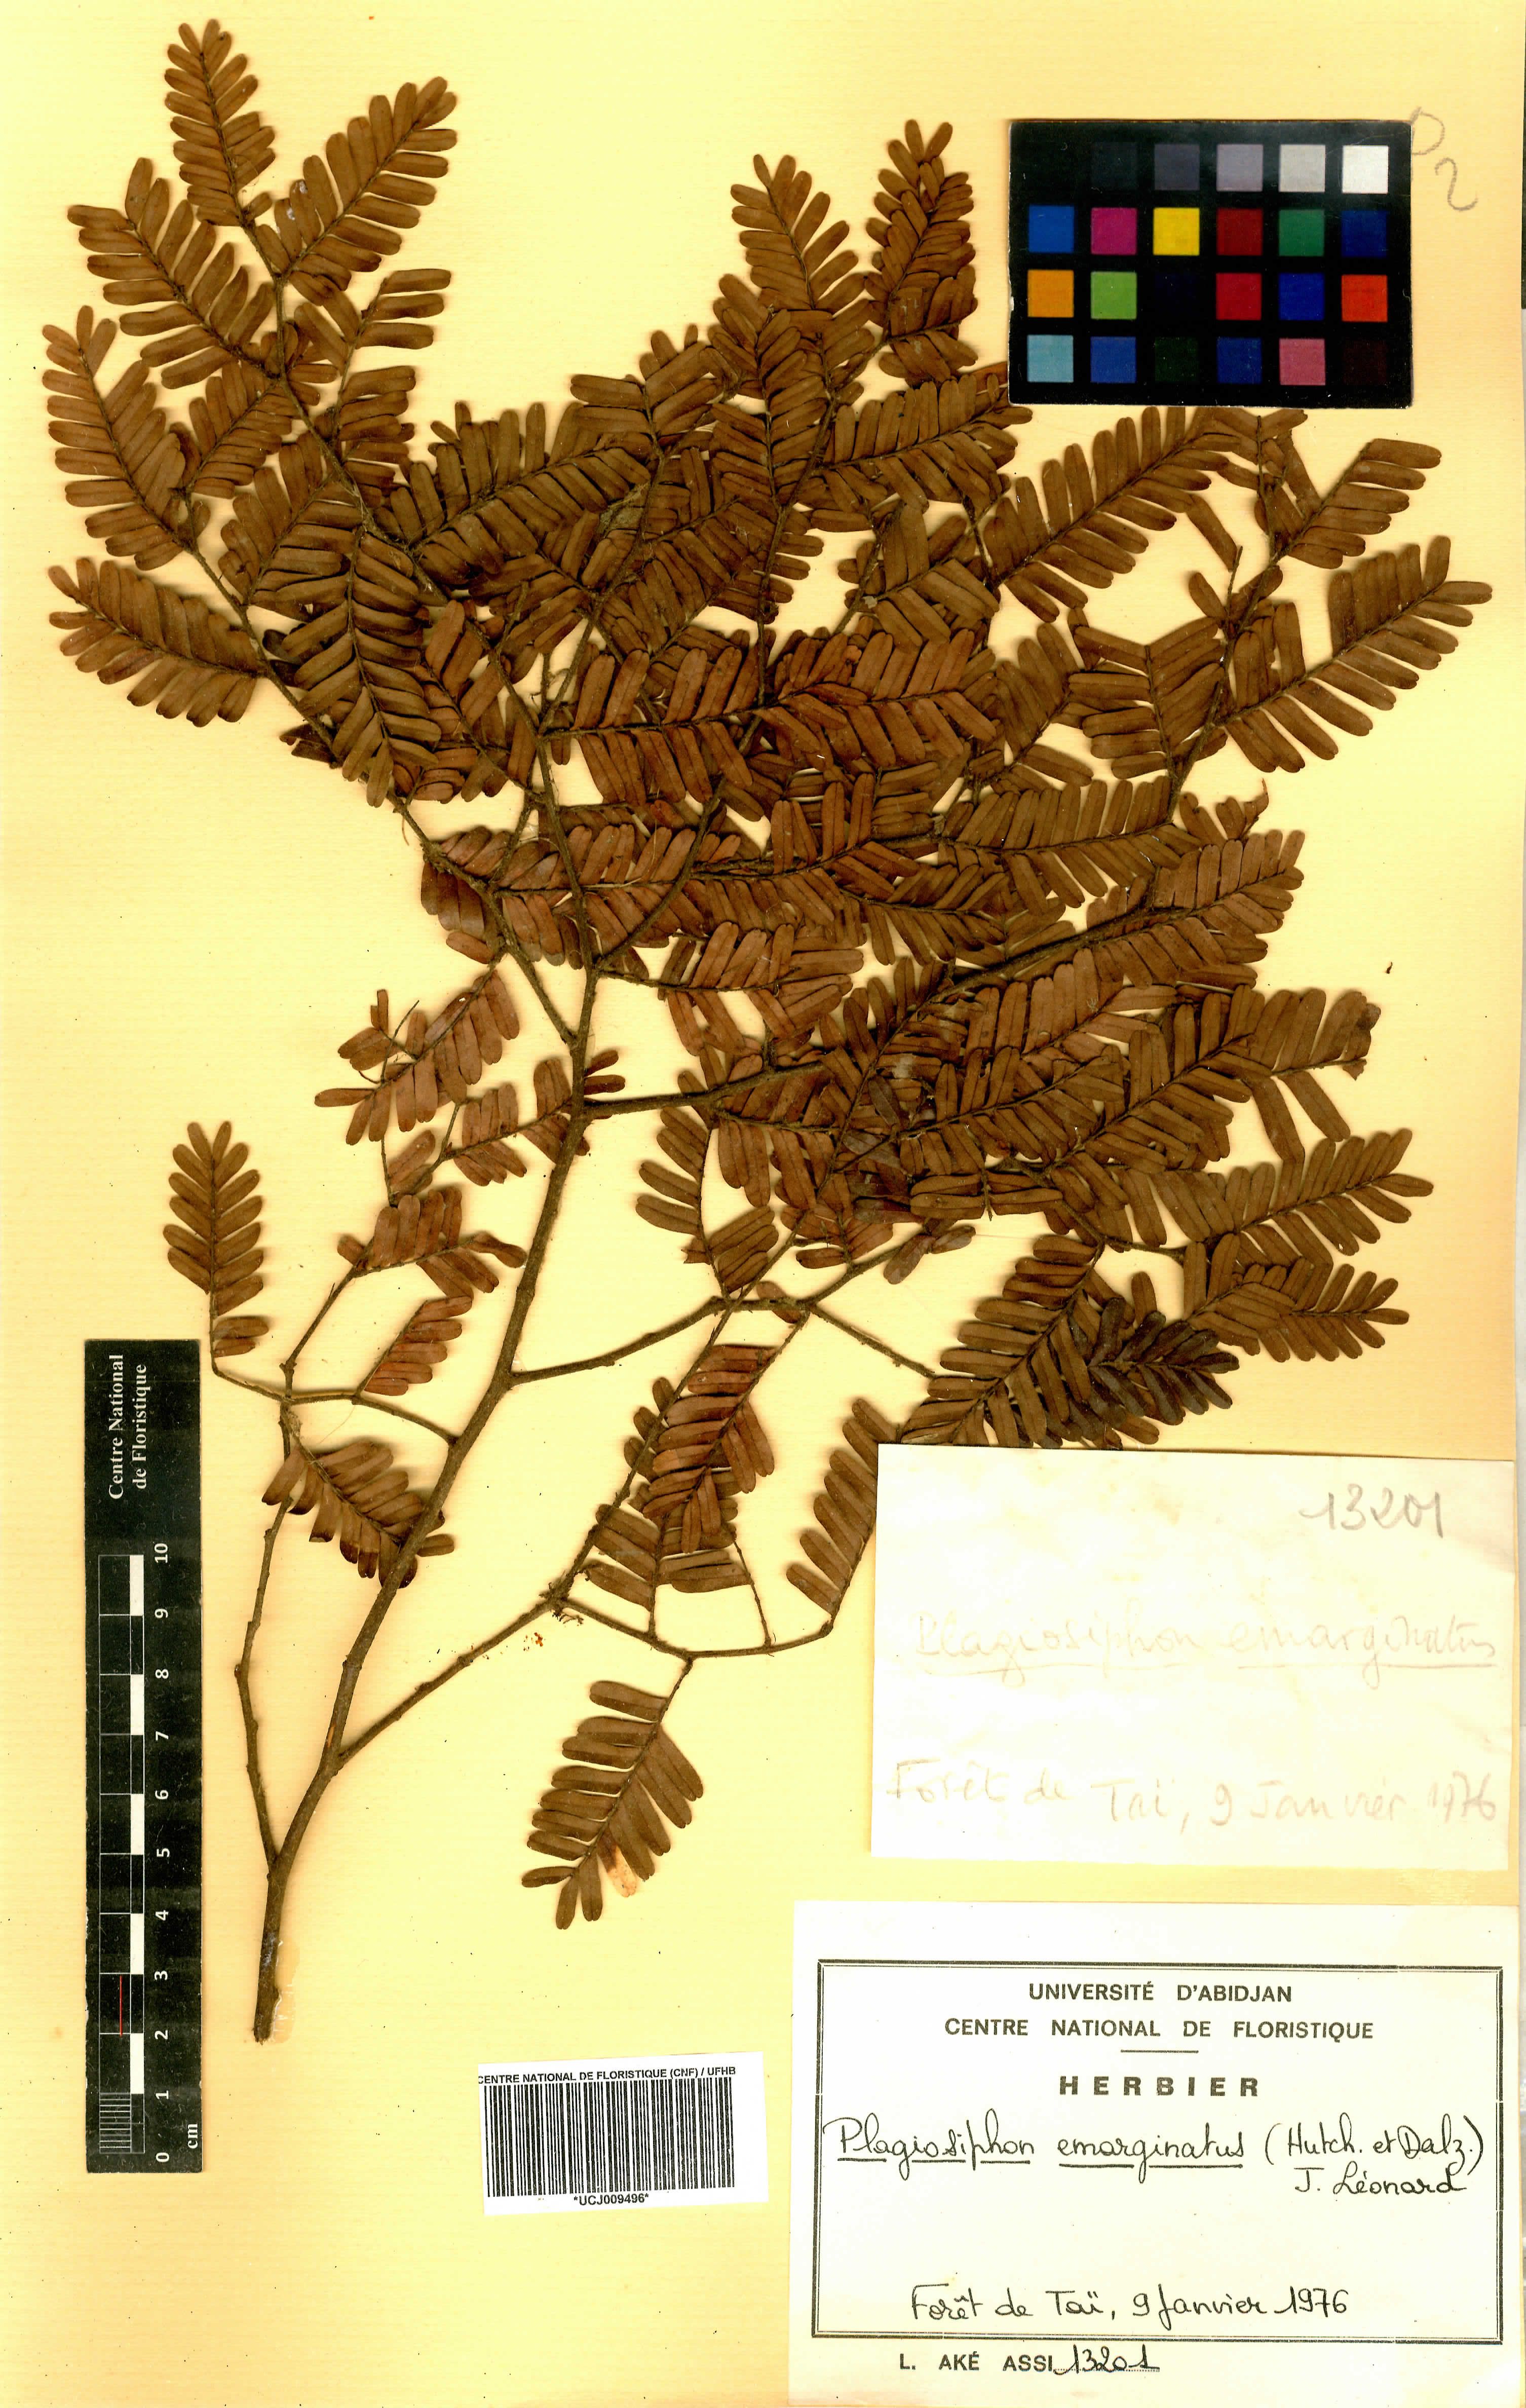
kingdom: Plantae
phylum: Tracheophyta
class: Magnoliopsida
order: Fabales
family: Fabaceae
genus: Plagiosiphon
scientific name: Plagiosiphon emarginatus
